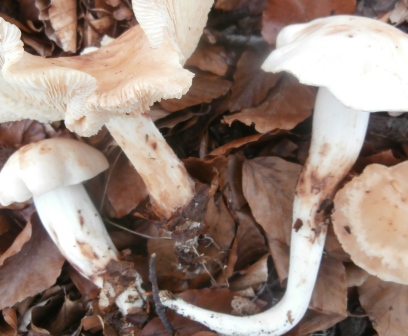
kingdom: Fungi
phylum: Basidiomycota
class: Agaricomycetes
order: Agaricales
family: Omphalotaceae
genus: Rhodocollybia
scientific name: Rhodocollybia maculata
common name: plettet fladhat
